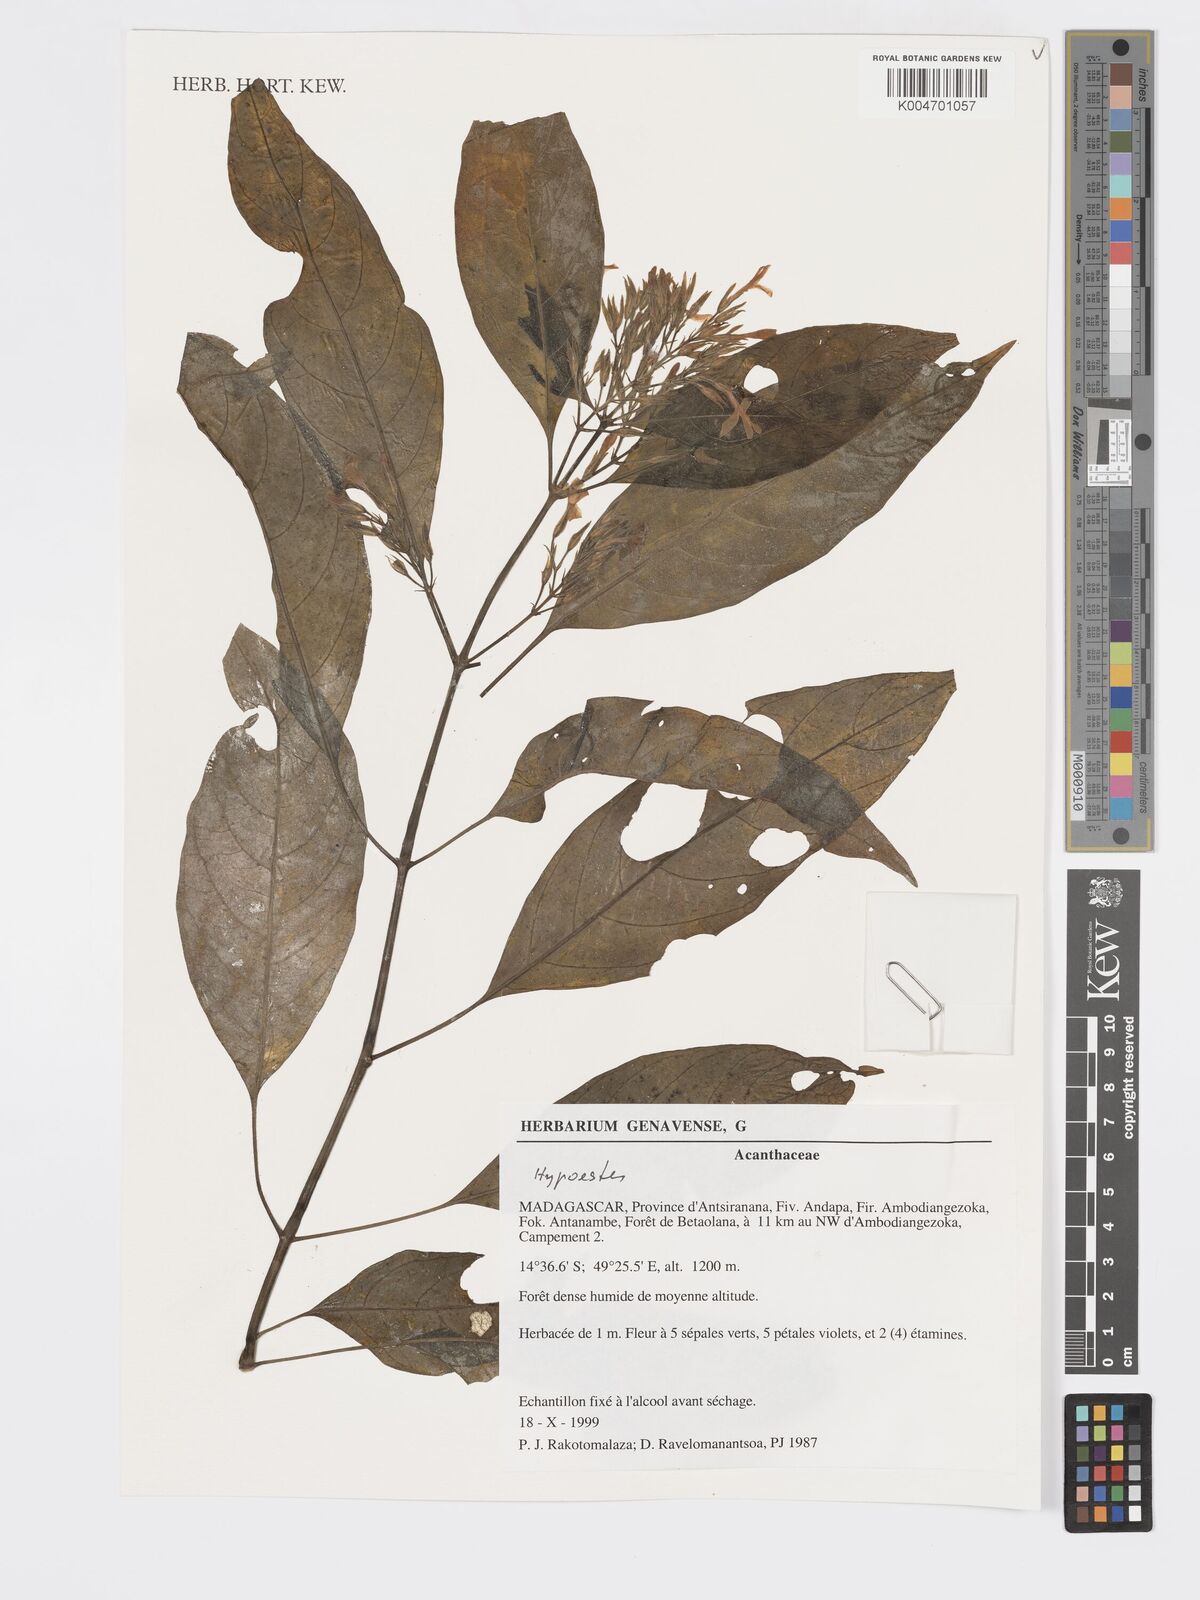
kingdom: Plantae
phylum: Tracheophyta
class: Magnoliopsida
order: Lamiales
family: Acanthaceae
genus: Hypoestes
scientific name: Hypoestes
